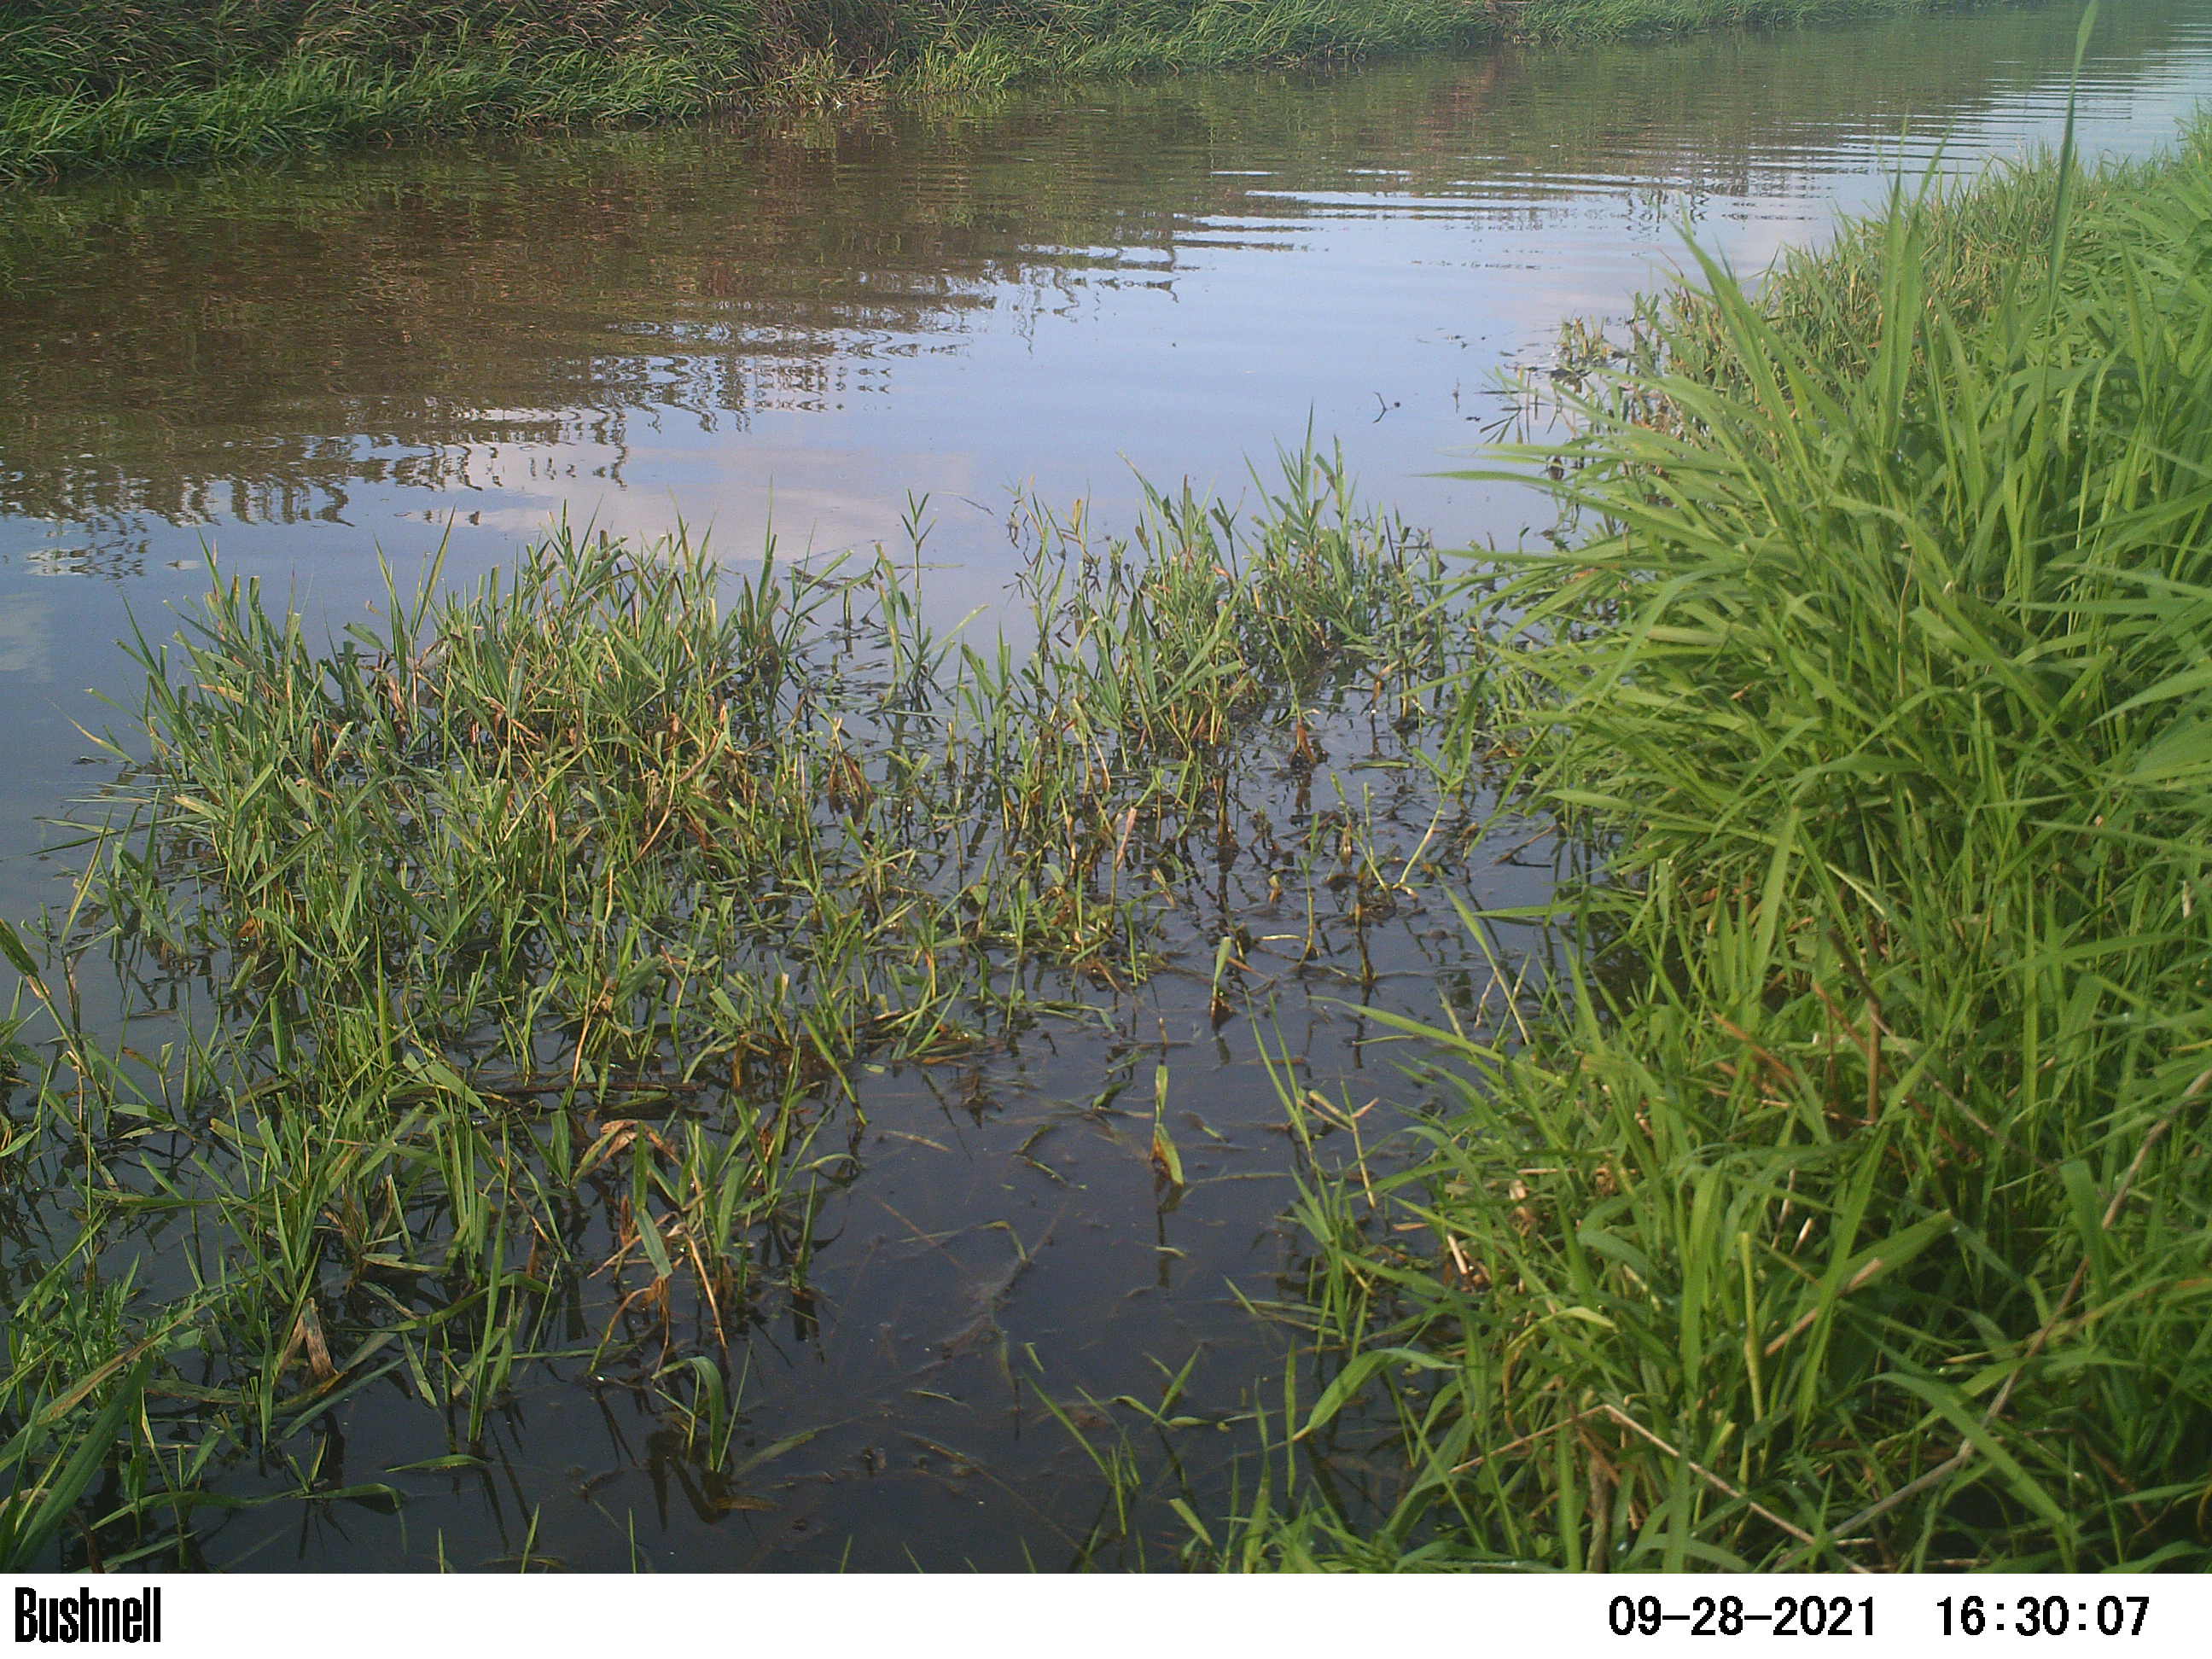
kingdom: Animalia
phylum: Chordata
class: Aves
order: Gruiformes
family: Rallidae
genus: Fulica
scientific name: Fulica atra
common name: Eurasian coot
